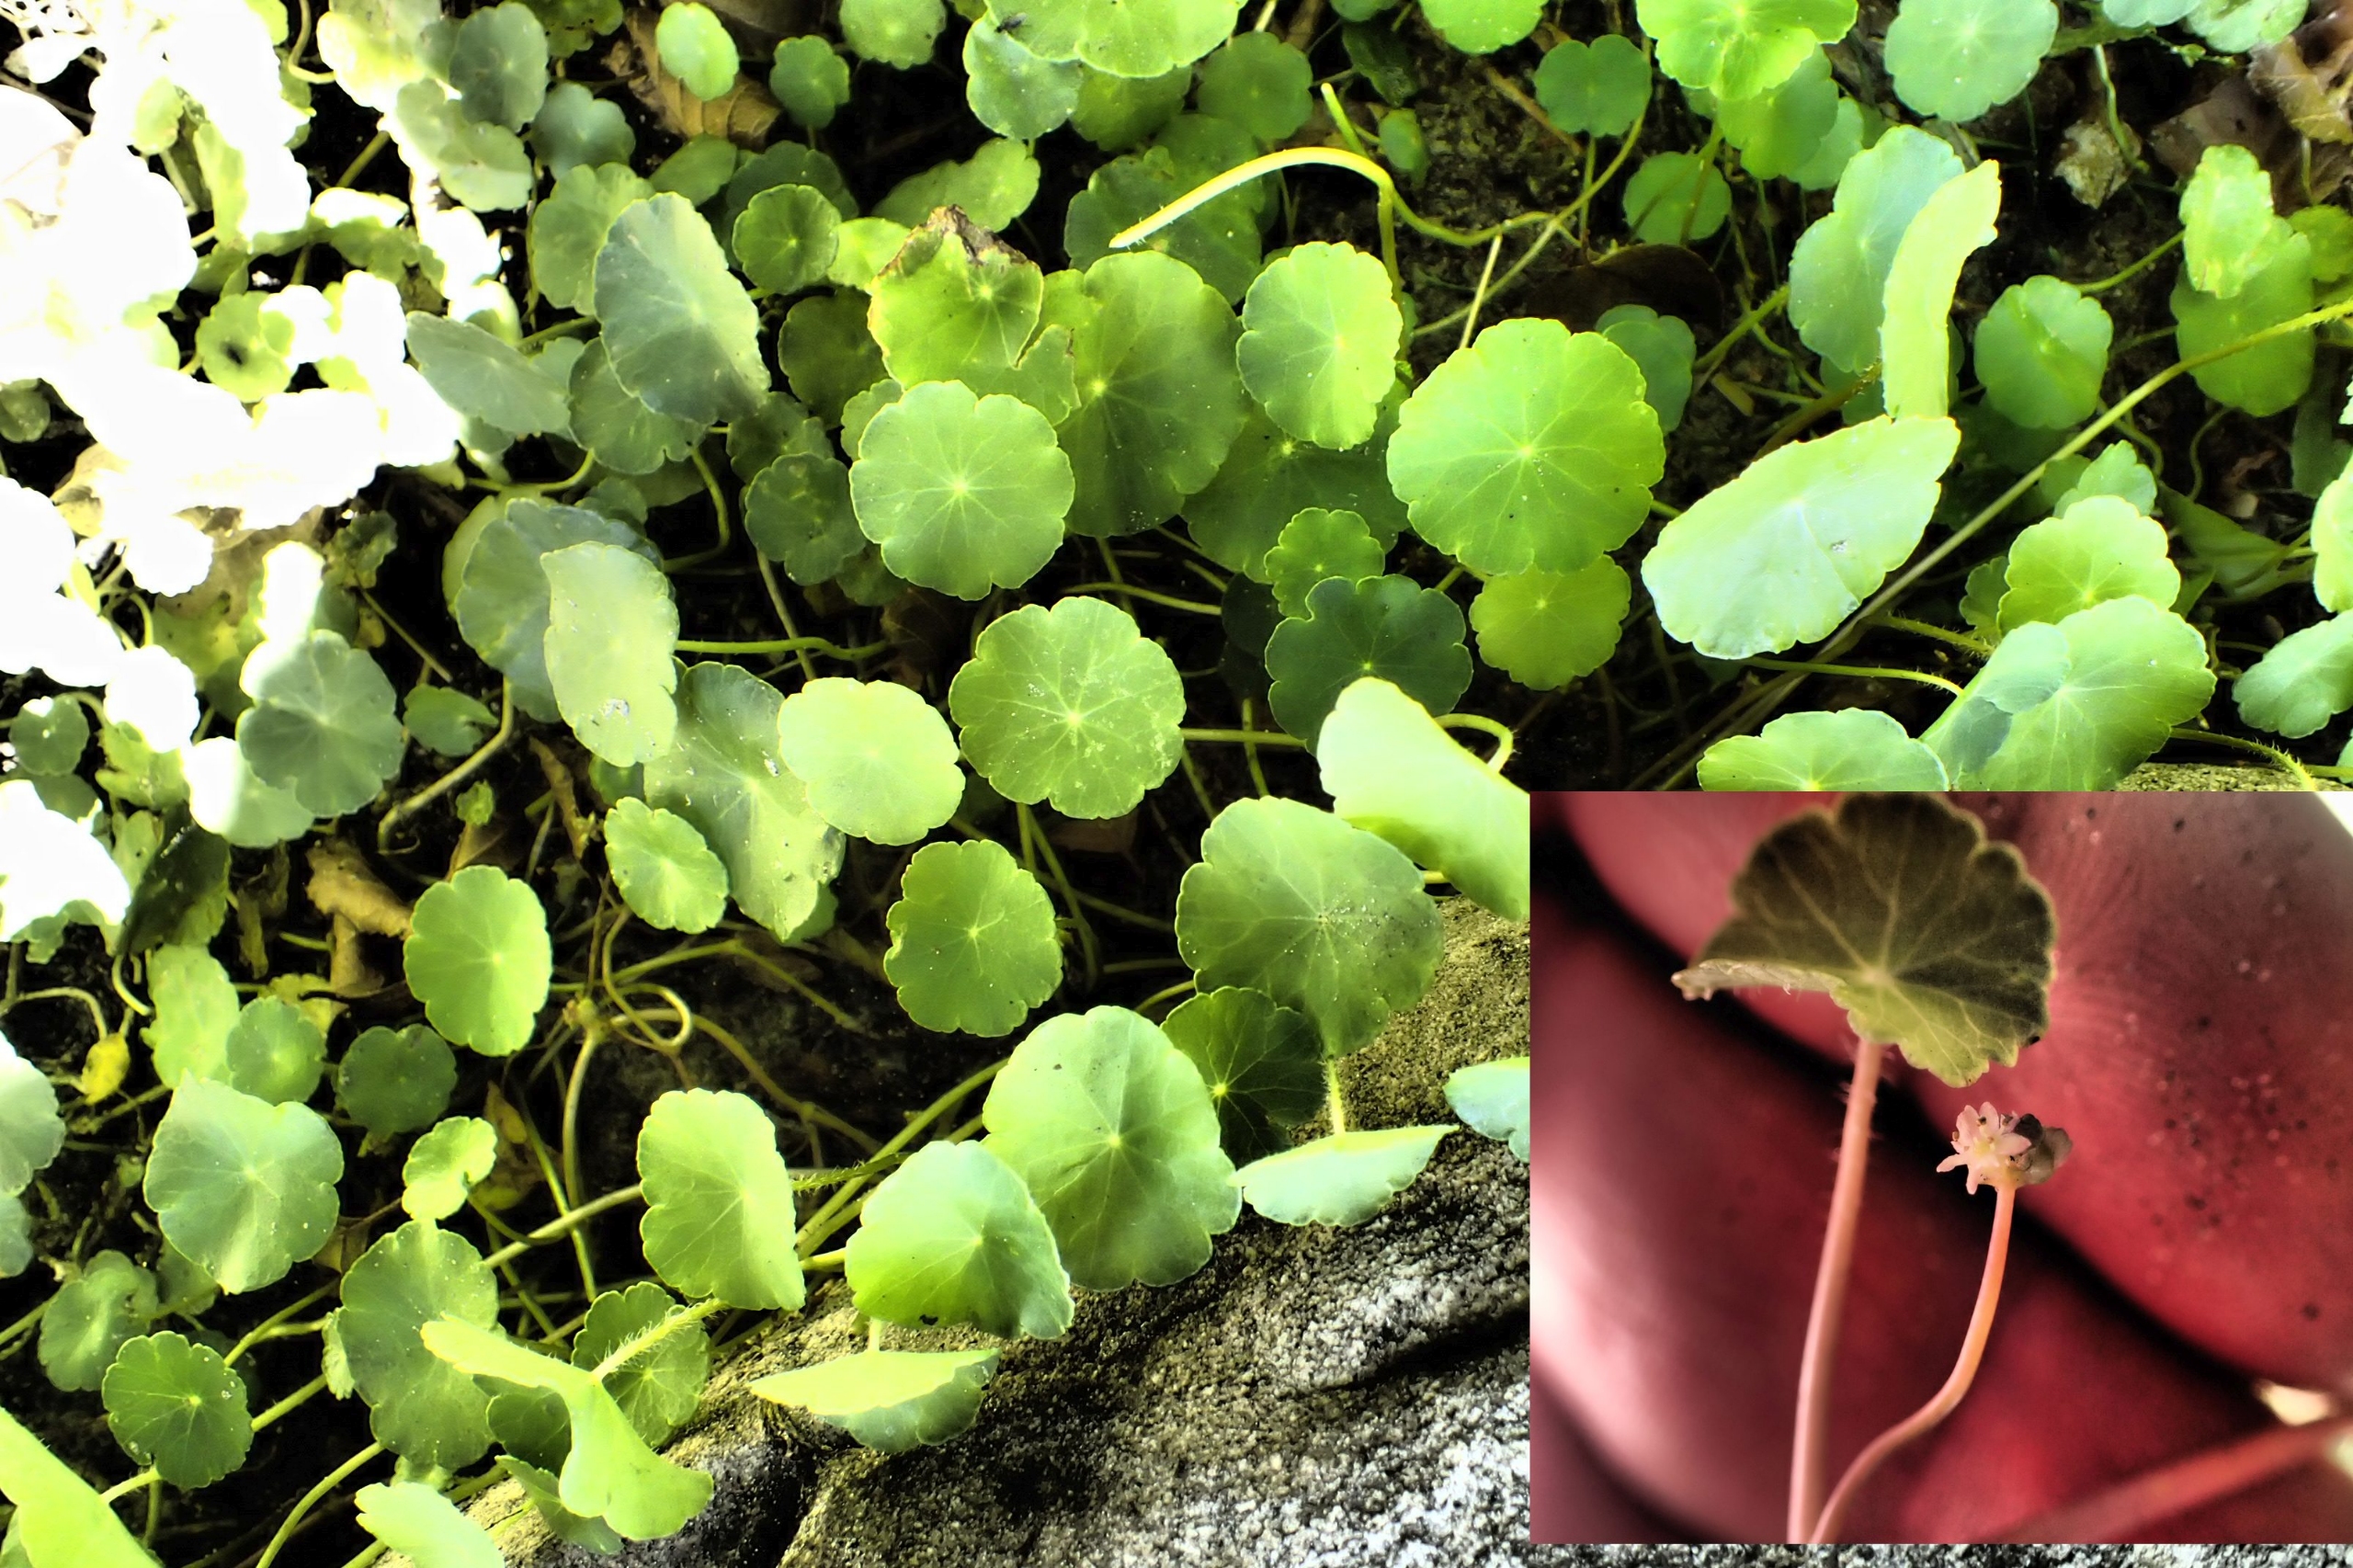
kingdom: Plantae
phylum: Tracheophyta
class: Magnoliopsida
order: Apiales
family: Araliaceae
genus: Hydrocotyle
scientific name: Hydrocotyle vulgaris
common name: Vandnavle
